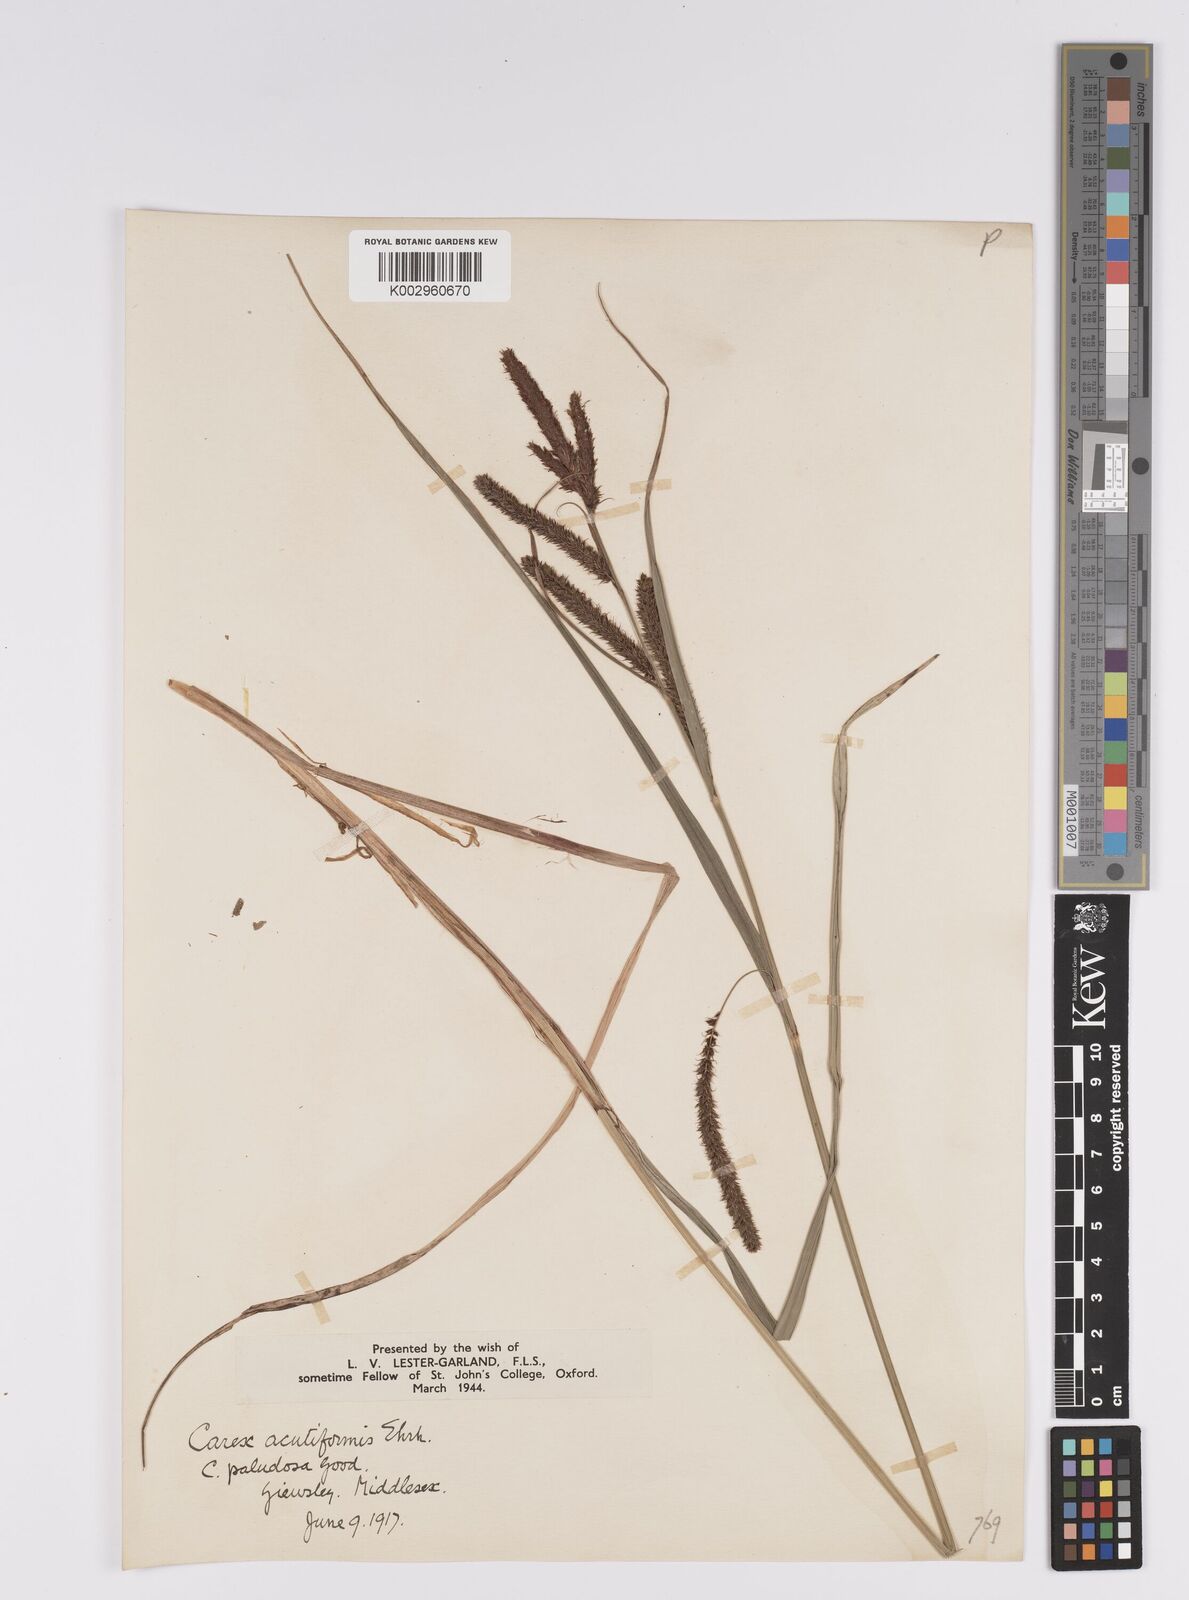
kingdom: Plantae
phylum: Tracheophyta
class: Liliopsida
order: Poales
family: Cyperaceae
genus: Carex
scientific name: Carex acutiformis
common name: Lesser pond-sedge
